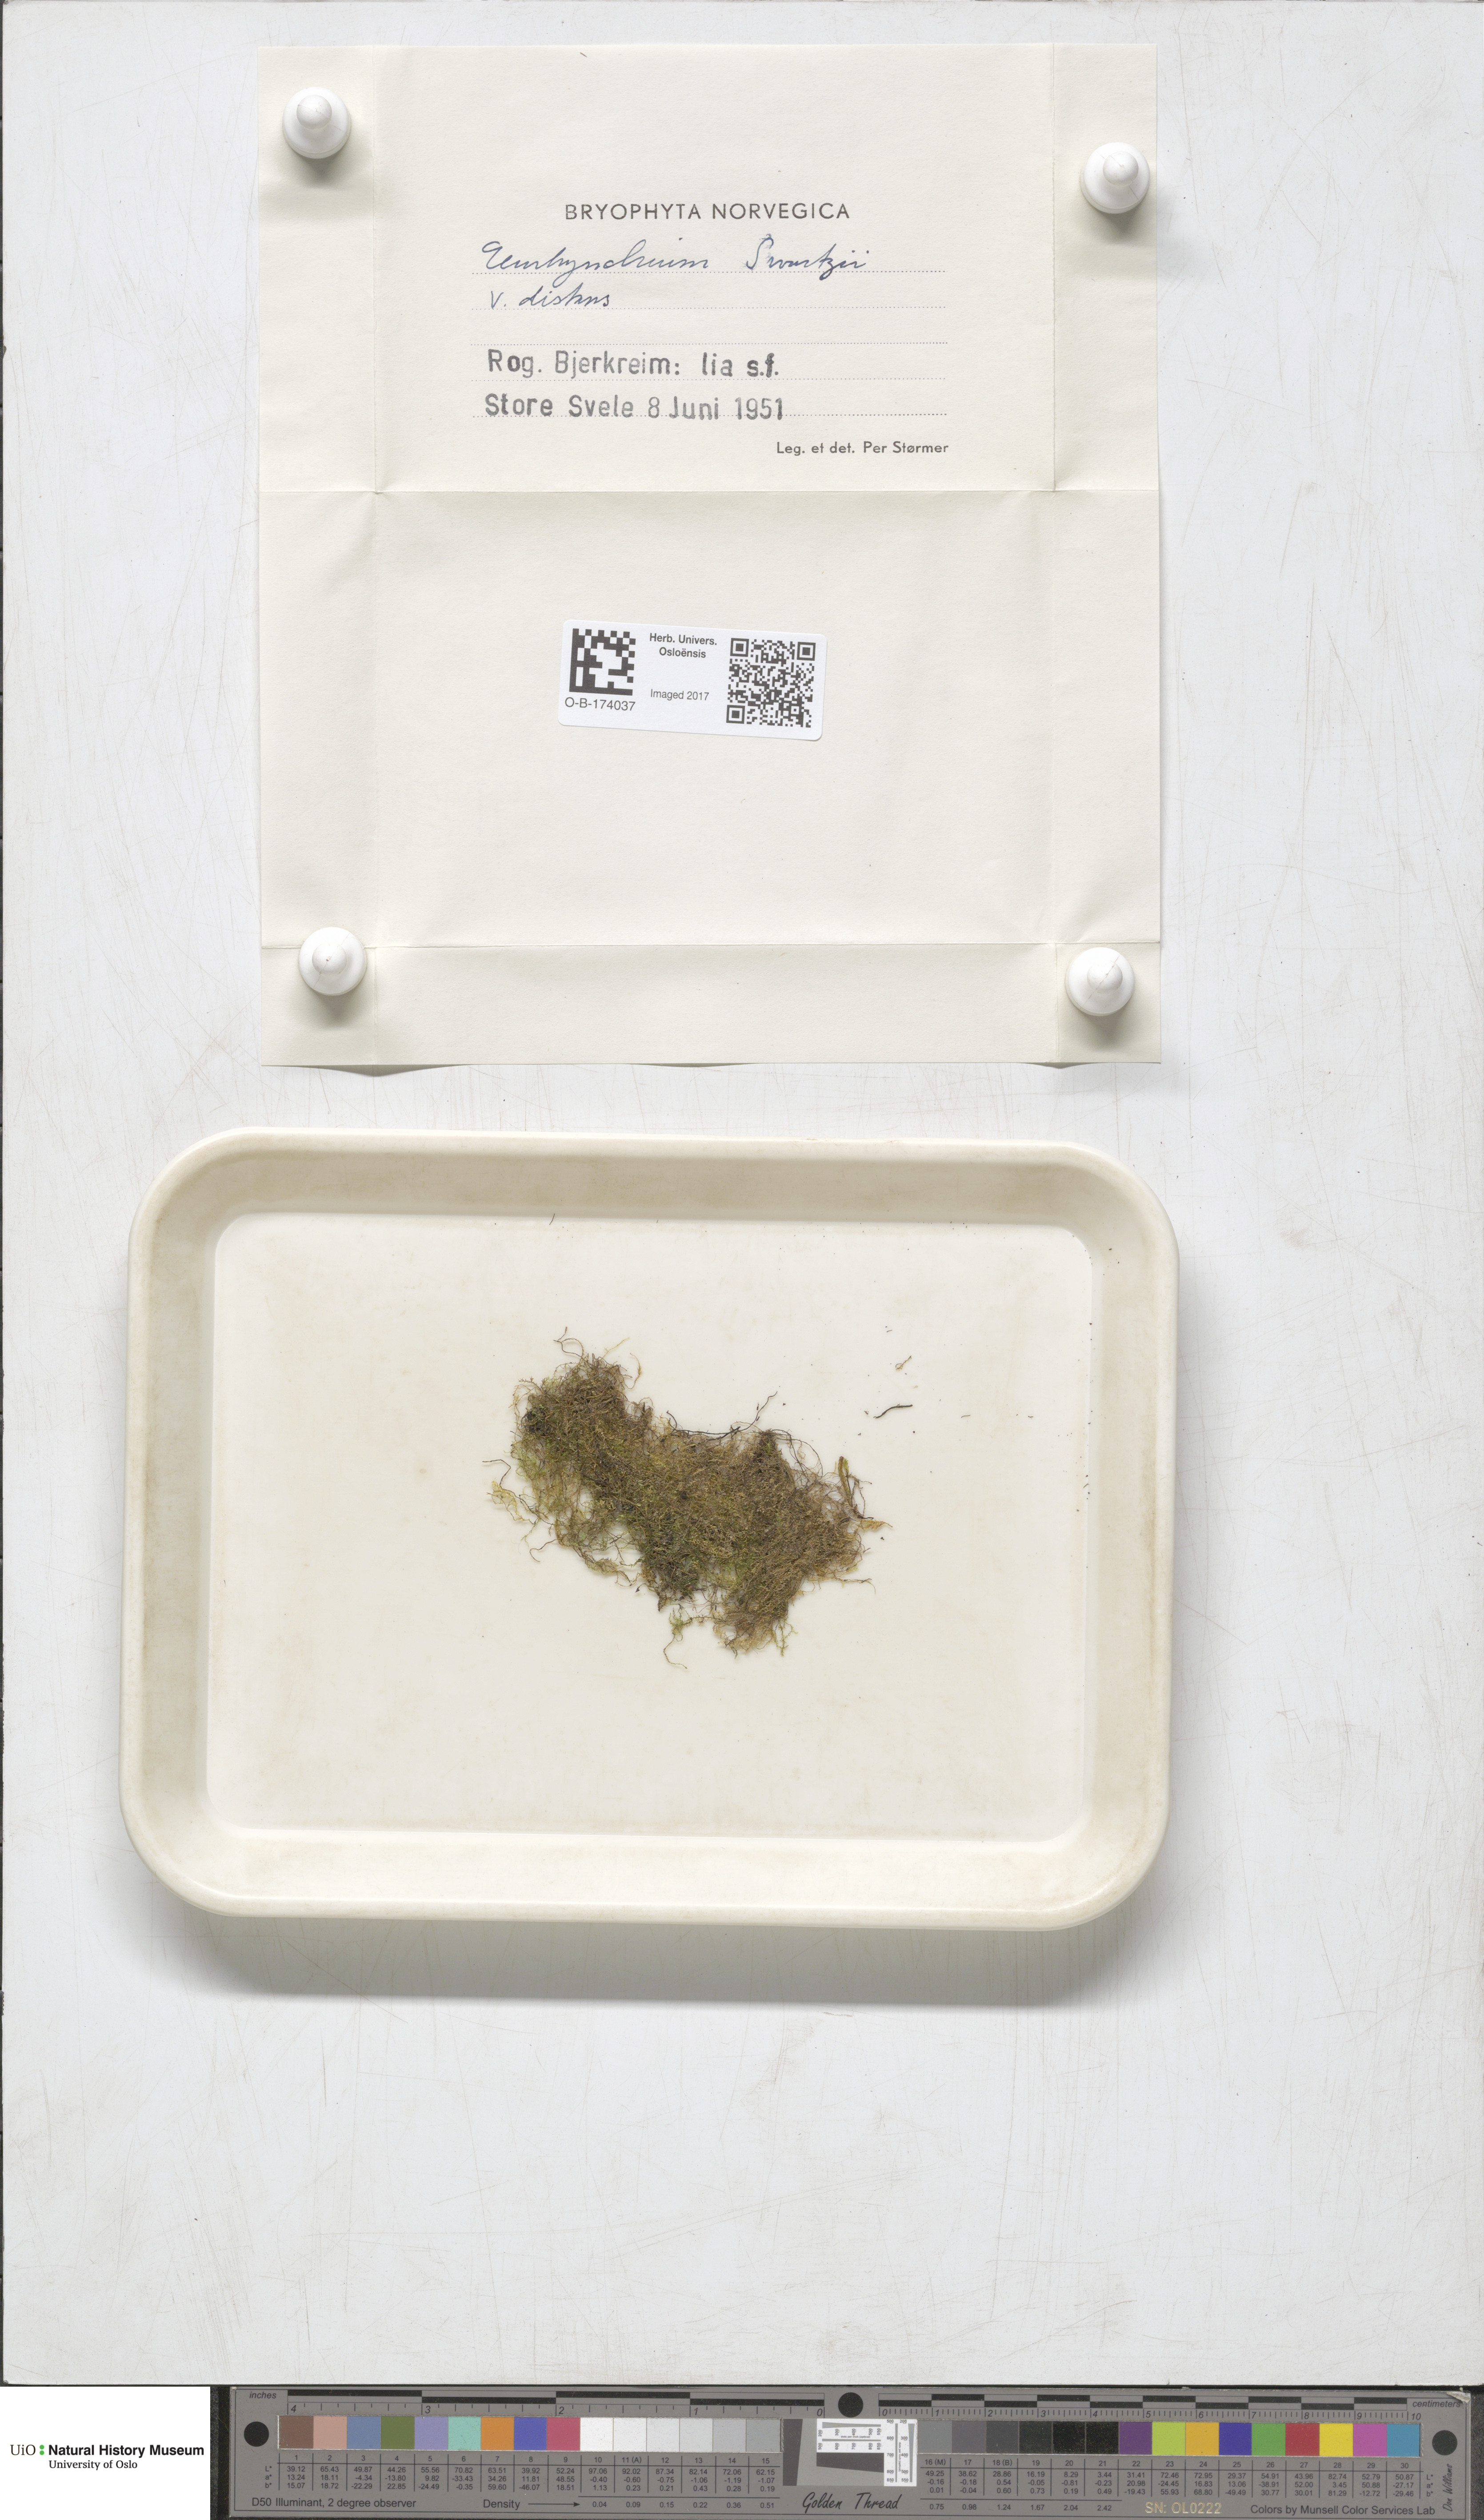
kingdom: Plantae
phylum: Bryophyta
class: Bryopsida
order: Hypnales
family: Brachytheciaceae
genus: Oxyrrhynchium
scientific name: Oxyrrhynchium hians
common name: Spreading beaked moss
